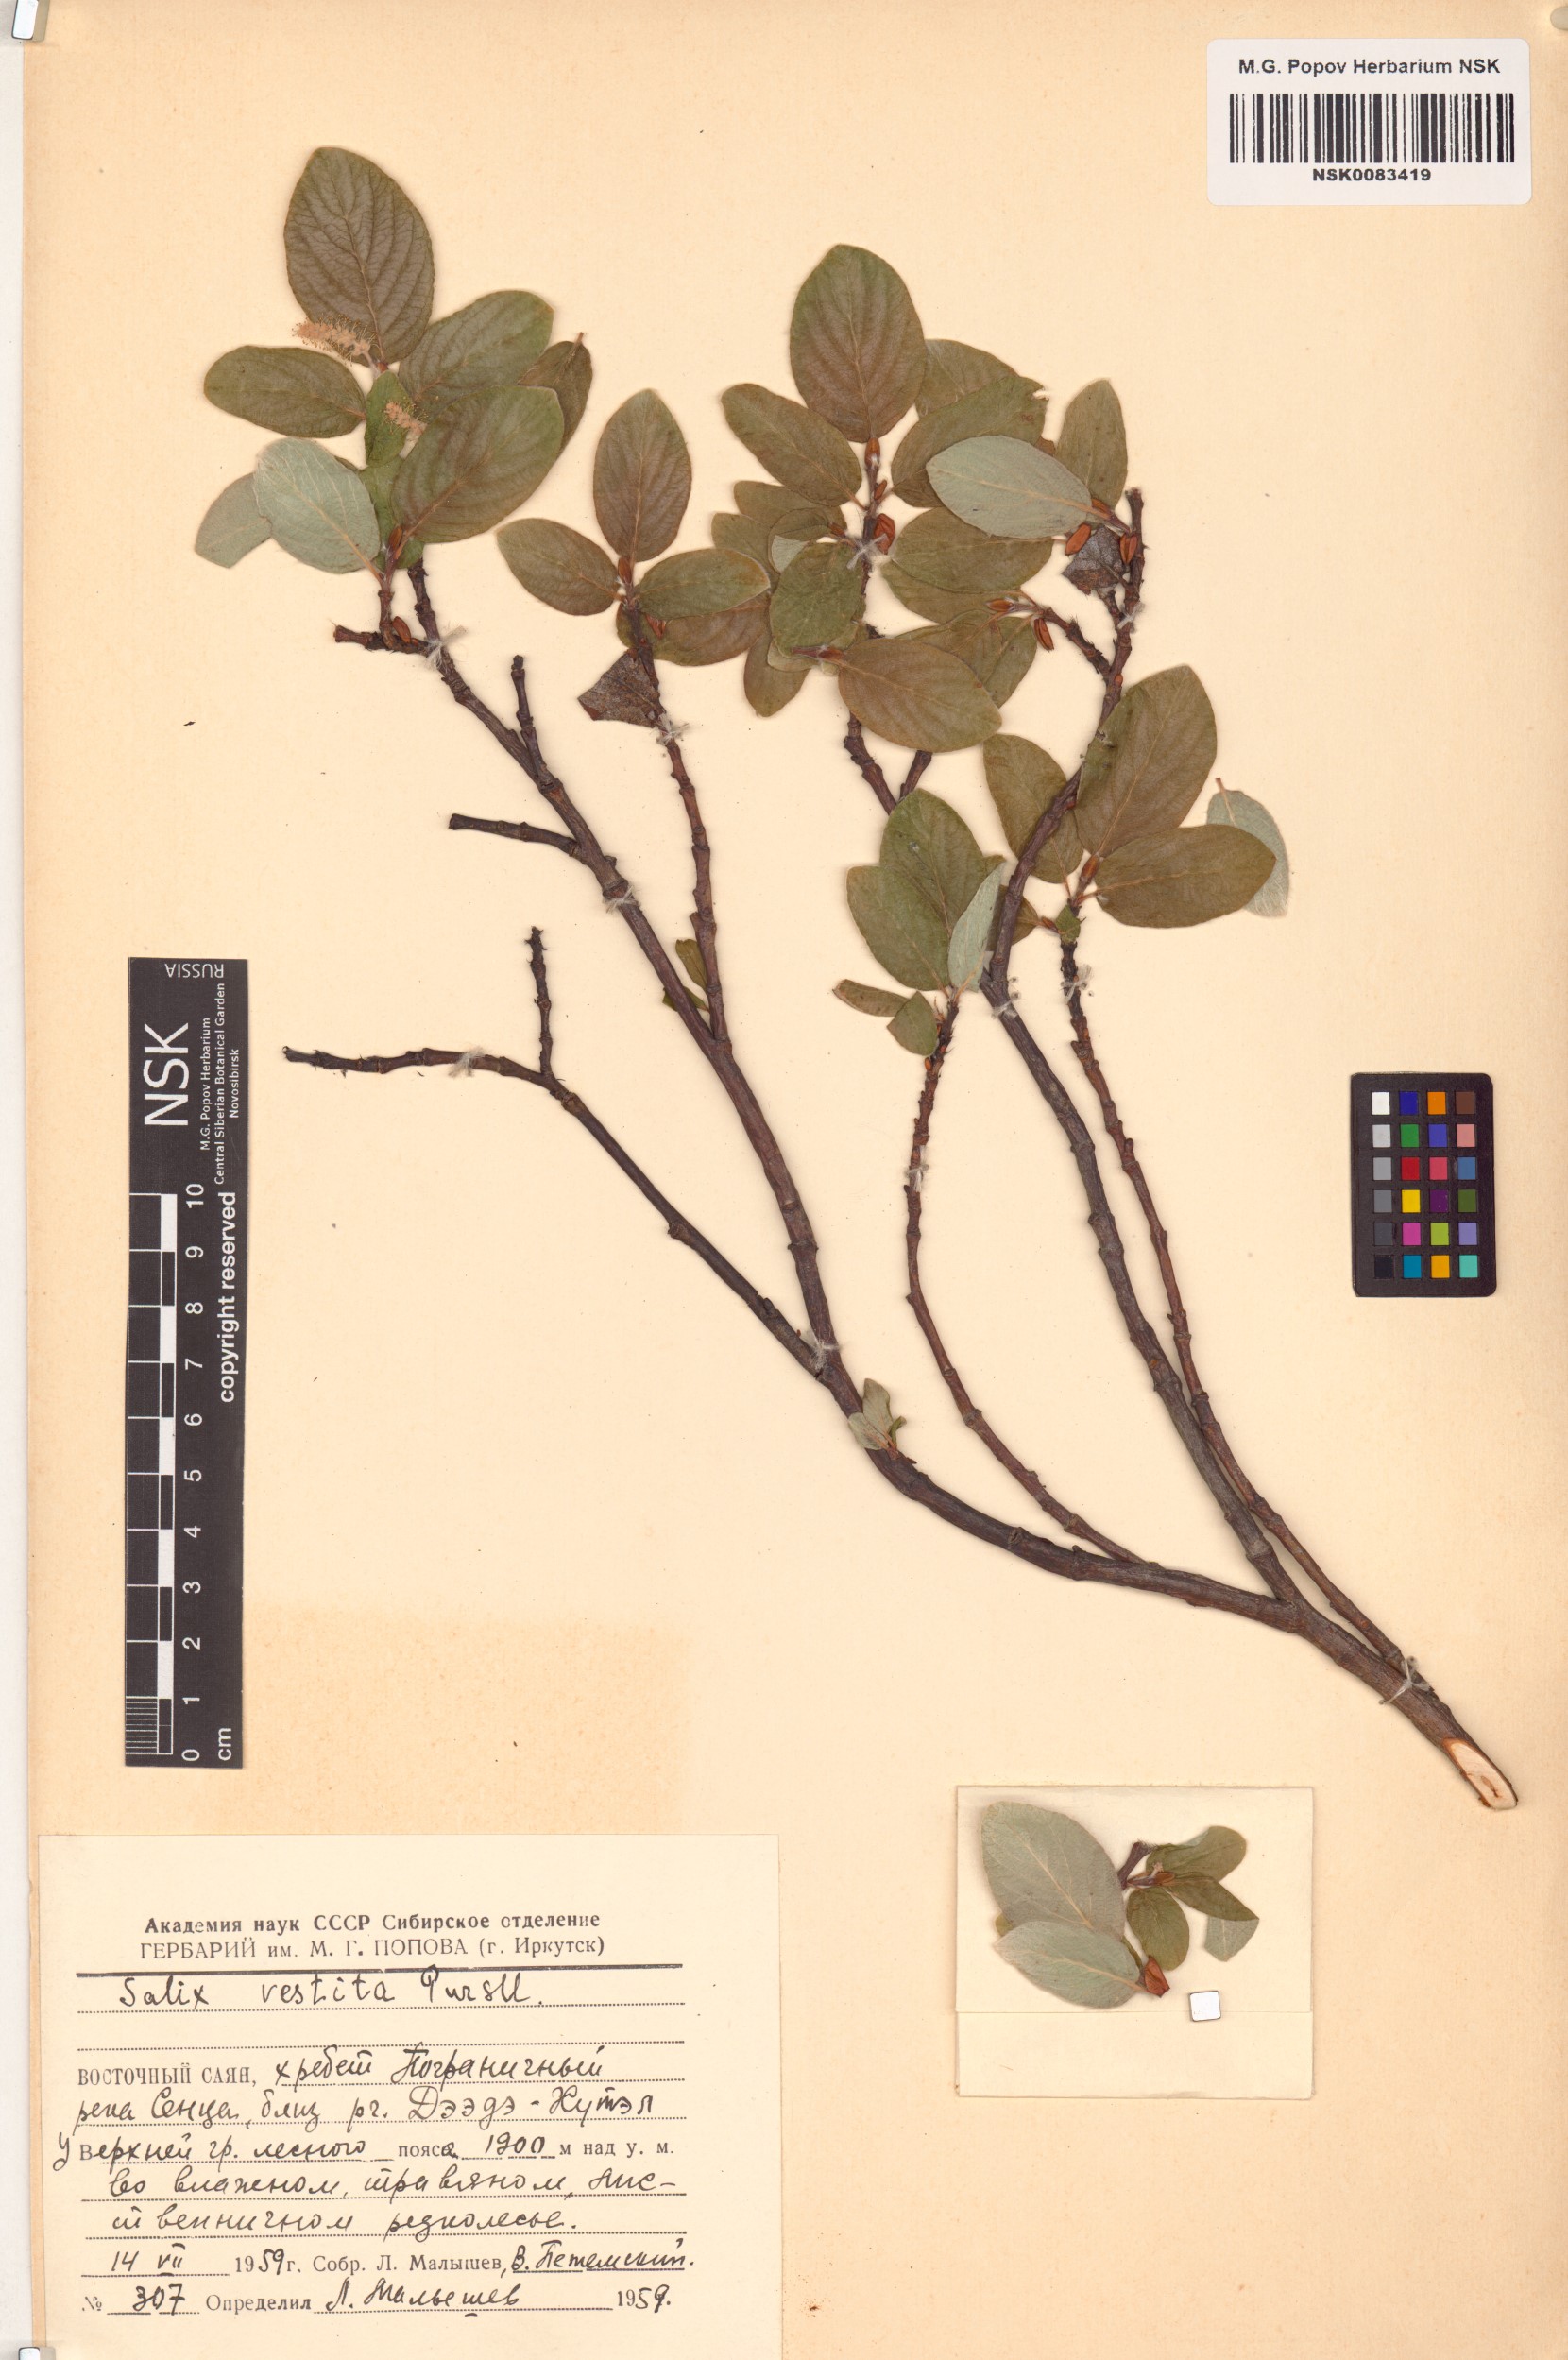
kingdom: Plantae
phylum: Tracheophyta
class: Magnoliopsida
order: Malpighiales
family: Salicaceae
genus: Salix
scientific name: Salix vestita
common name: Hairy willow
